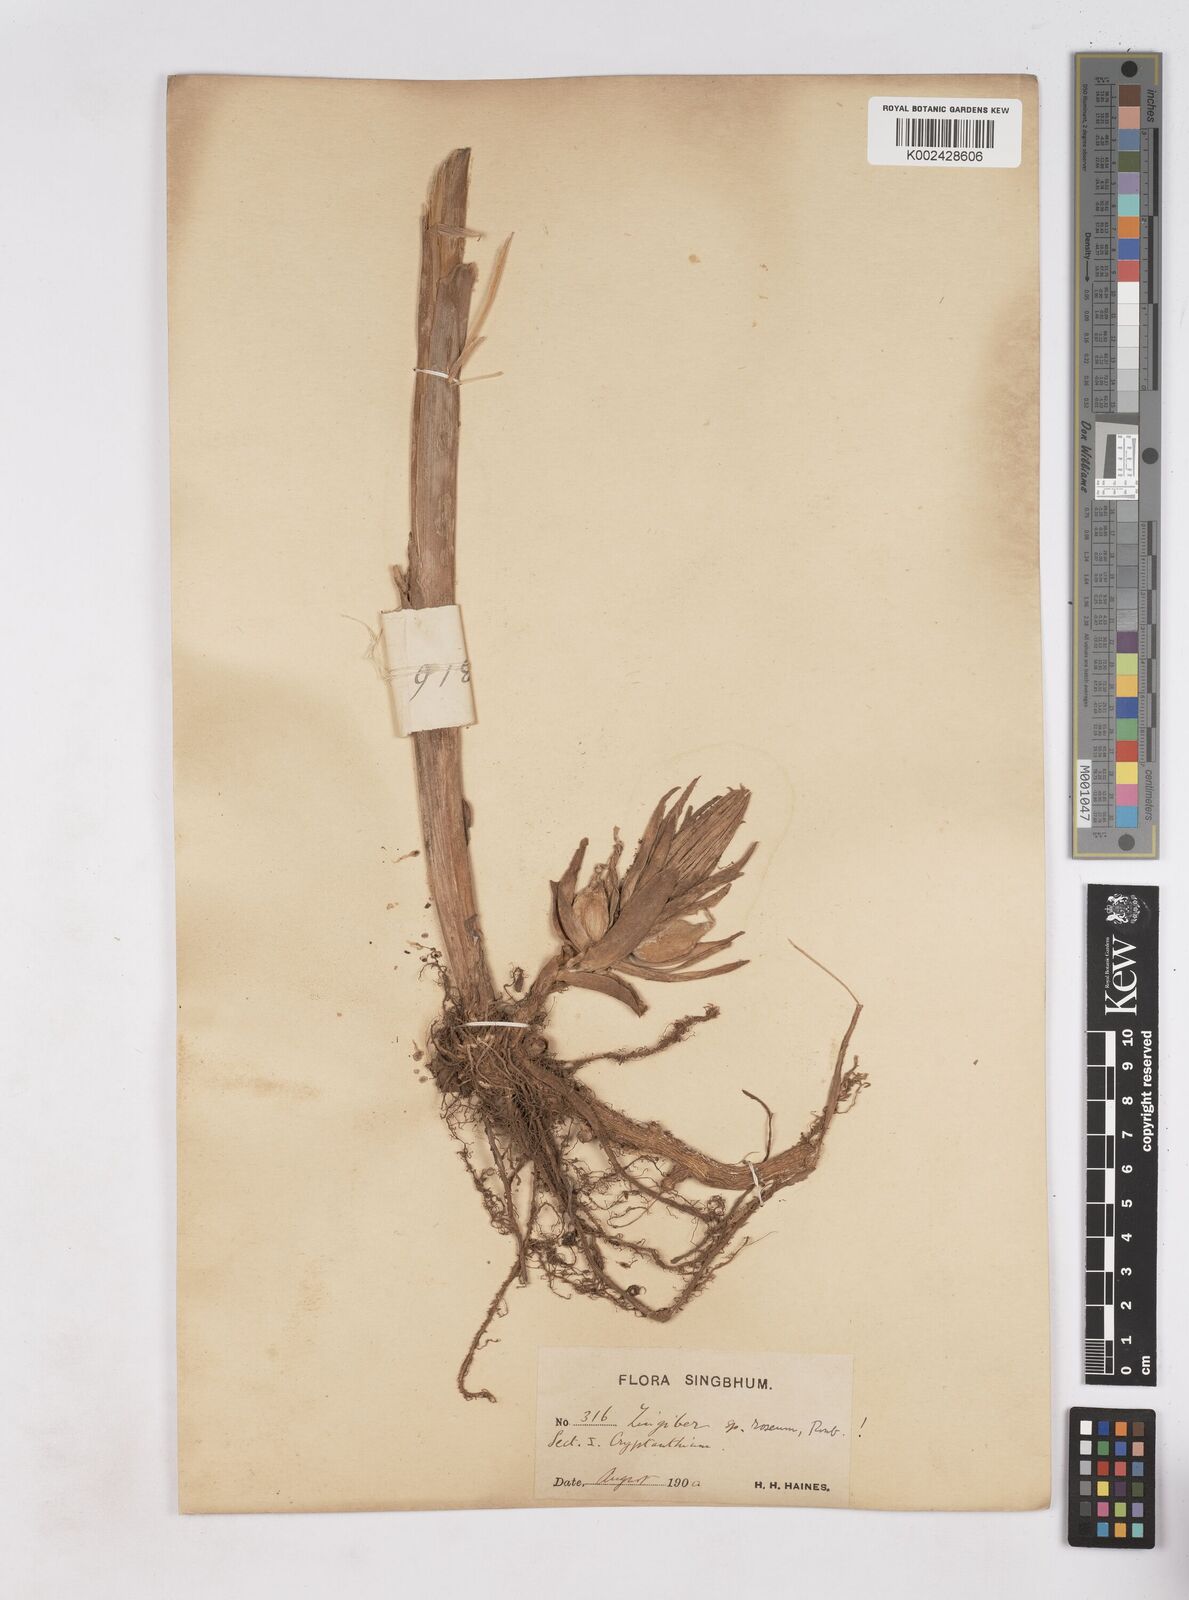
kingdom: Plantae
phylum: Tracheophyta
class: Liliopsida
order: Zingiberales
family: Zingiberaceae
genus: Zingiber
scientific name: Zingiber roseum
